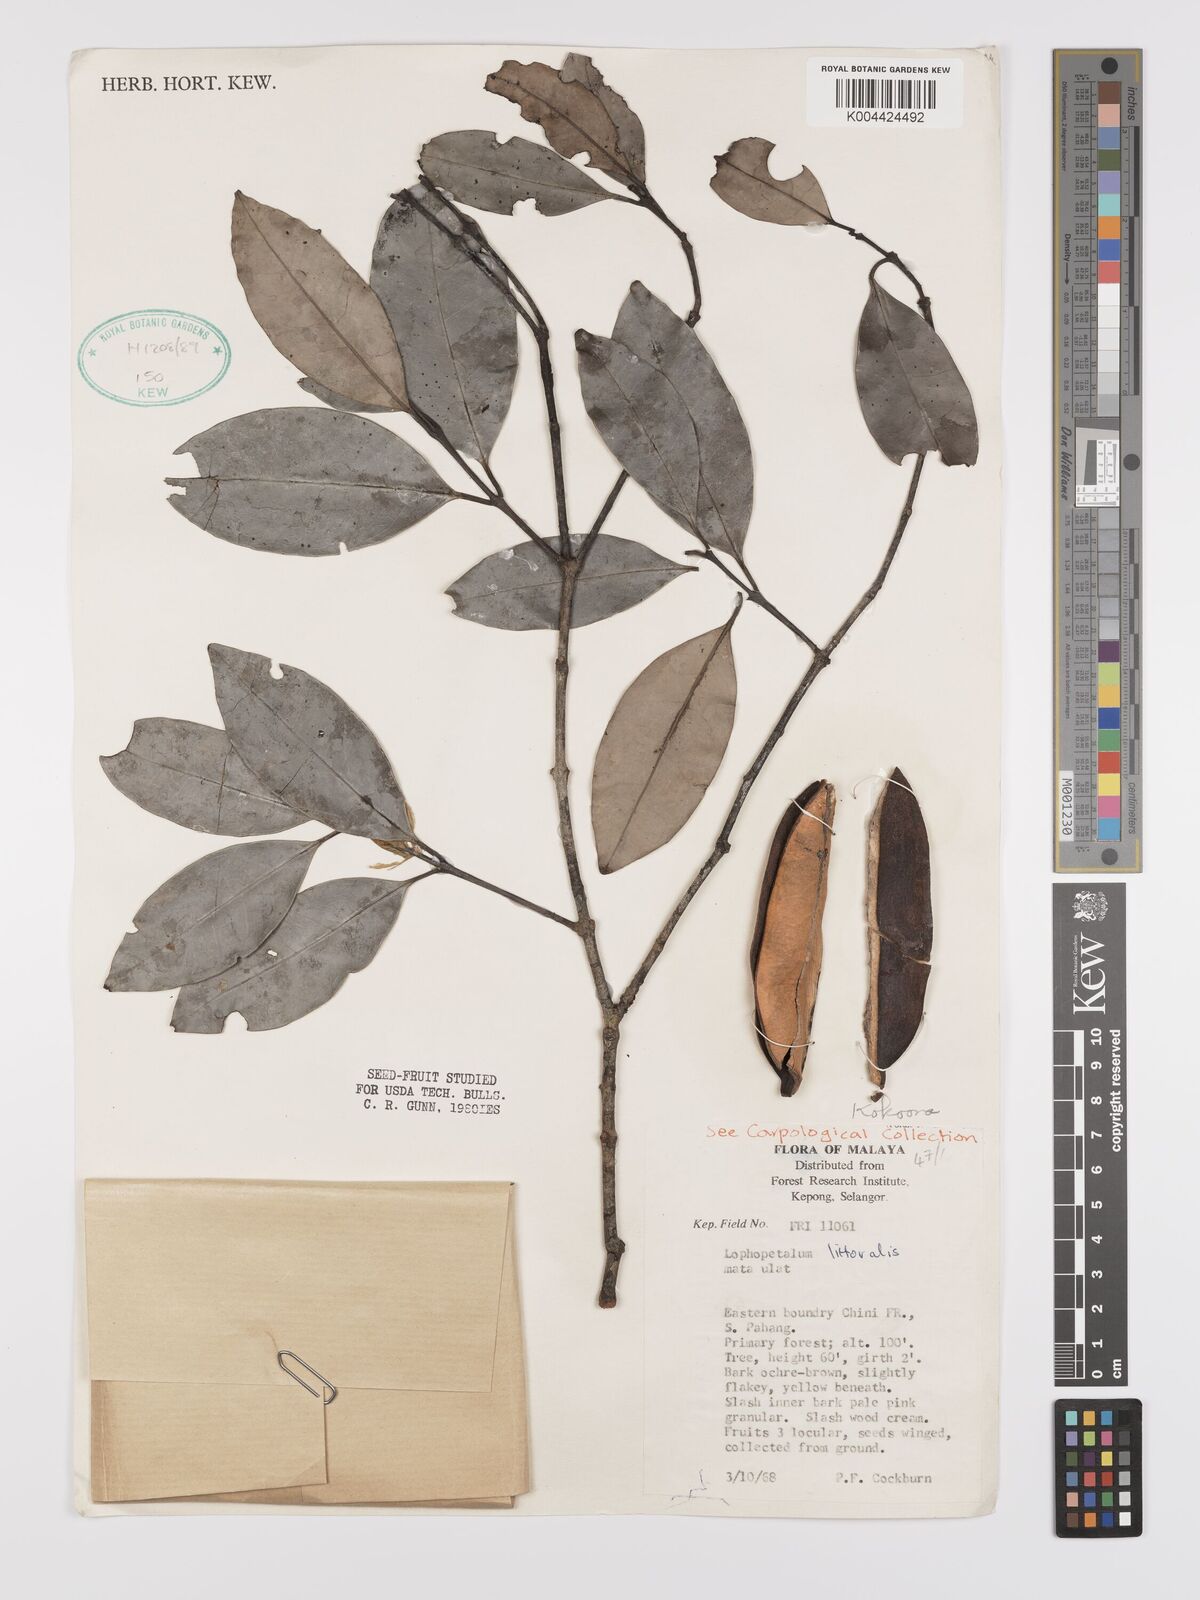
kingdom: Plantae
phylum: Tracheophyta
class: Magnoliopsida
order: Celastrales
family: Celastraceae
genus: Kokoona
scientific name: Kokoona littoralis
